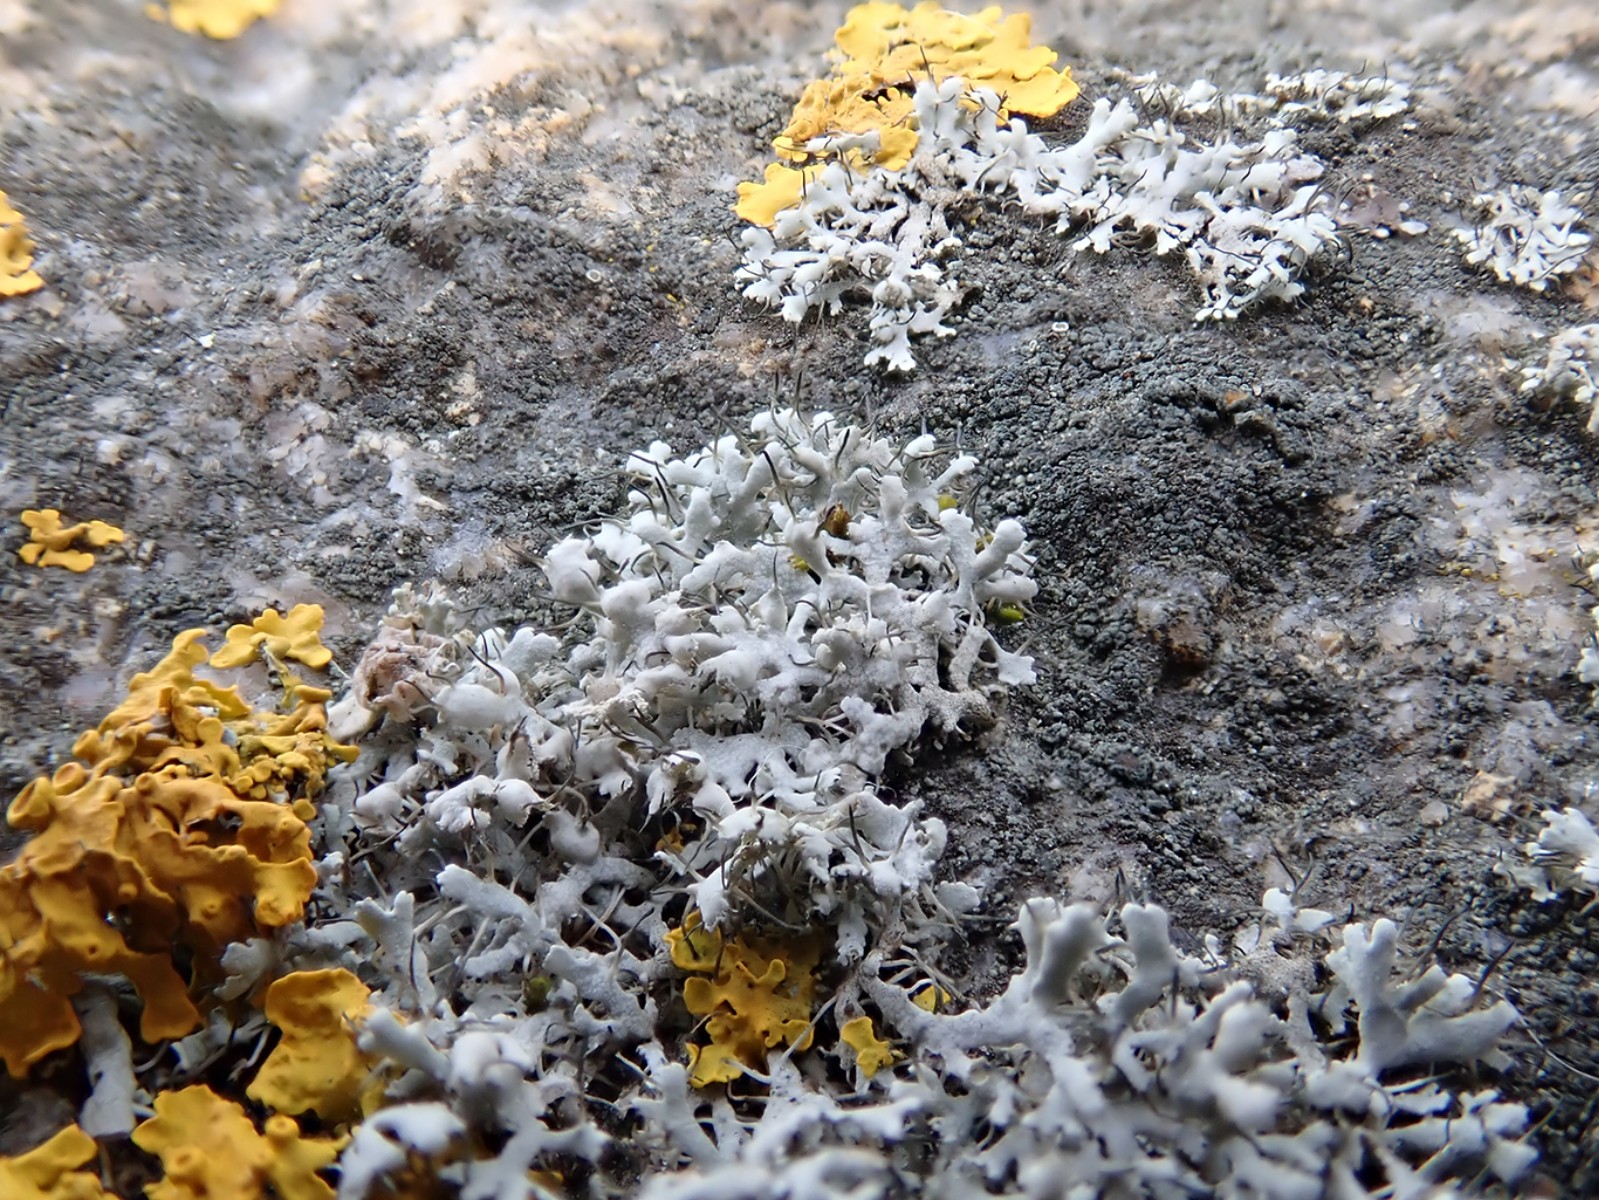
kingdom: Fungi
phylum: Ascomycota
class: Lecanoromycetes
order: Caliciales
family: Physciaceae
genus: Physcia
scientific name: Physcia adscendens
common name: hætte-rosetlav
